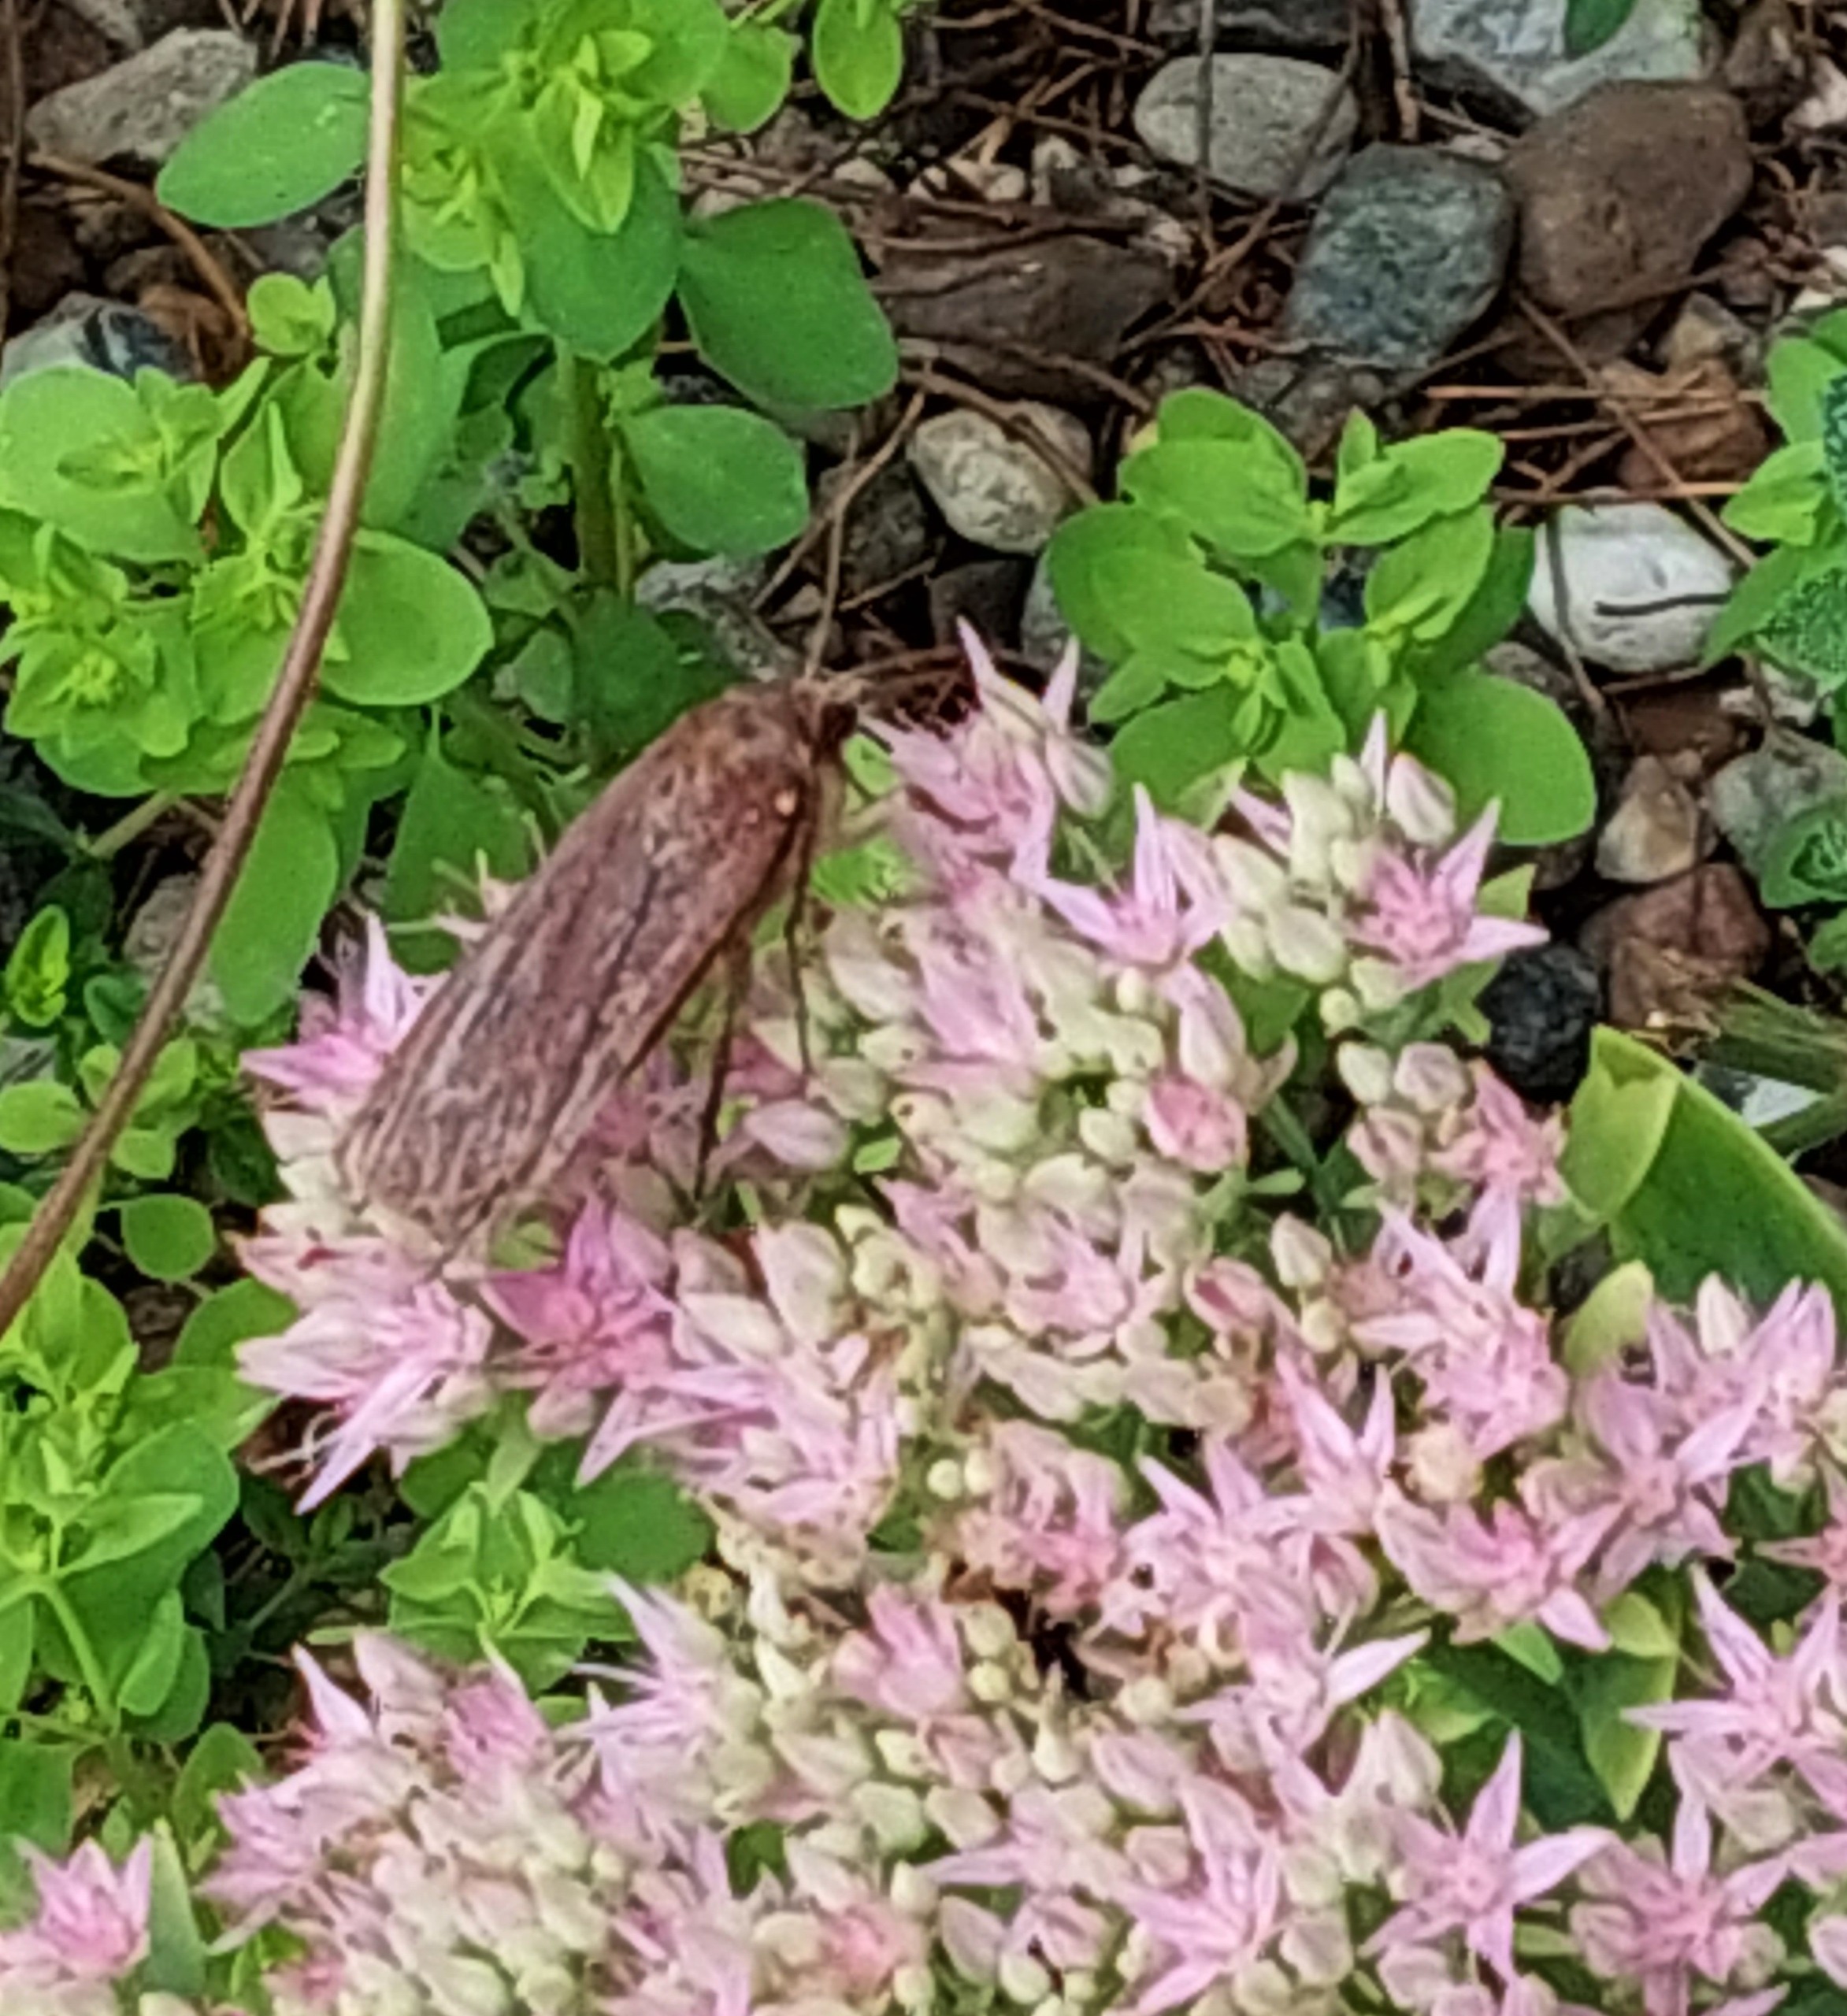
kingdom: Animalia
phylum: Arthropoda
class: Insecta
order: Lepidoptera
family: Noctuidae
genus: Noctua
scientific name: Noctua pronuba
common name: Stor smutugle
